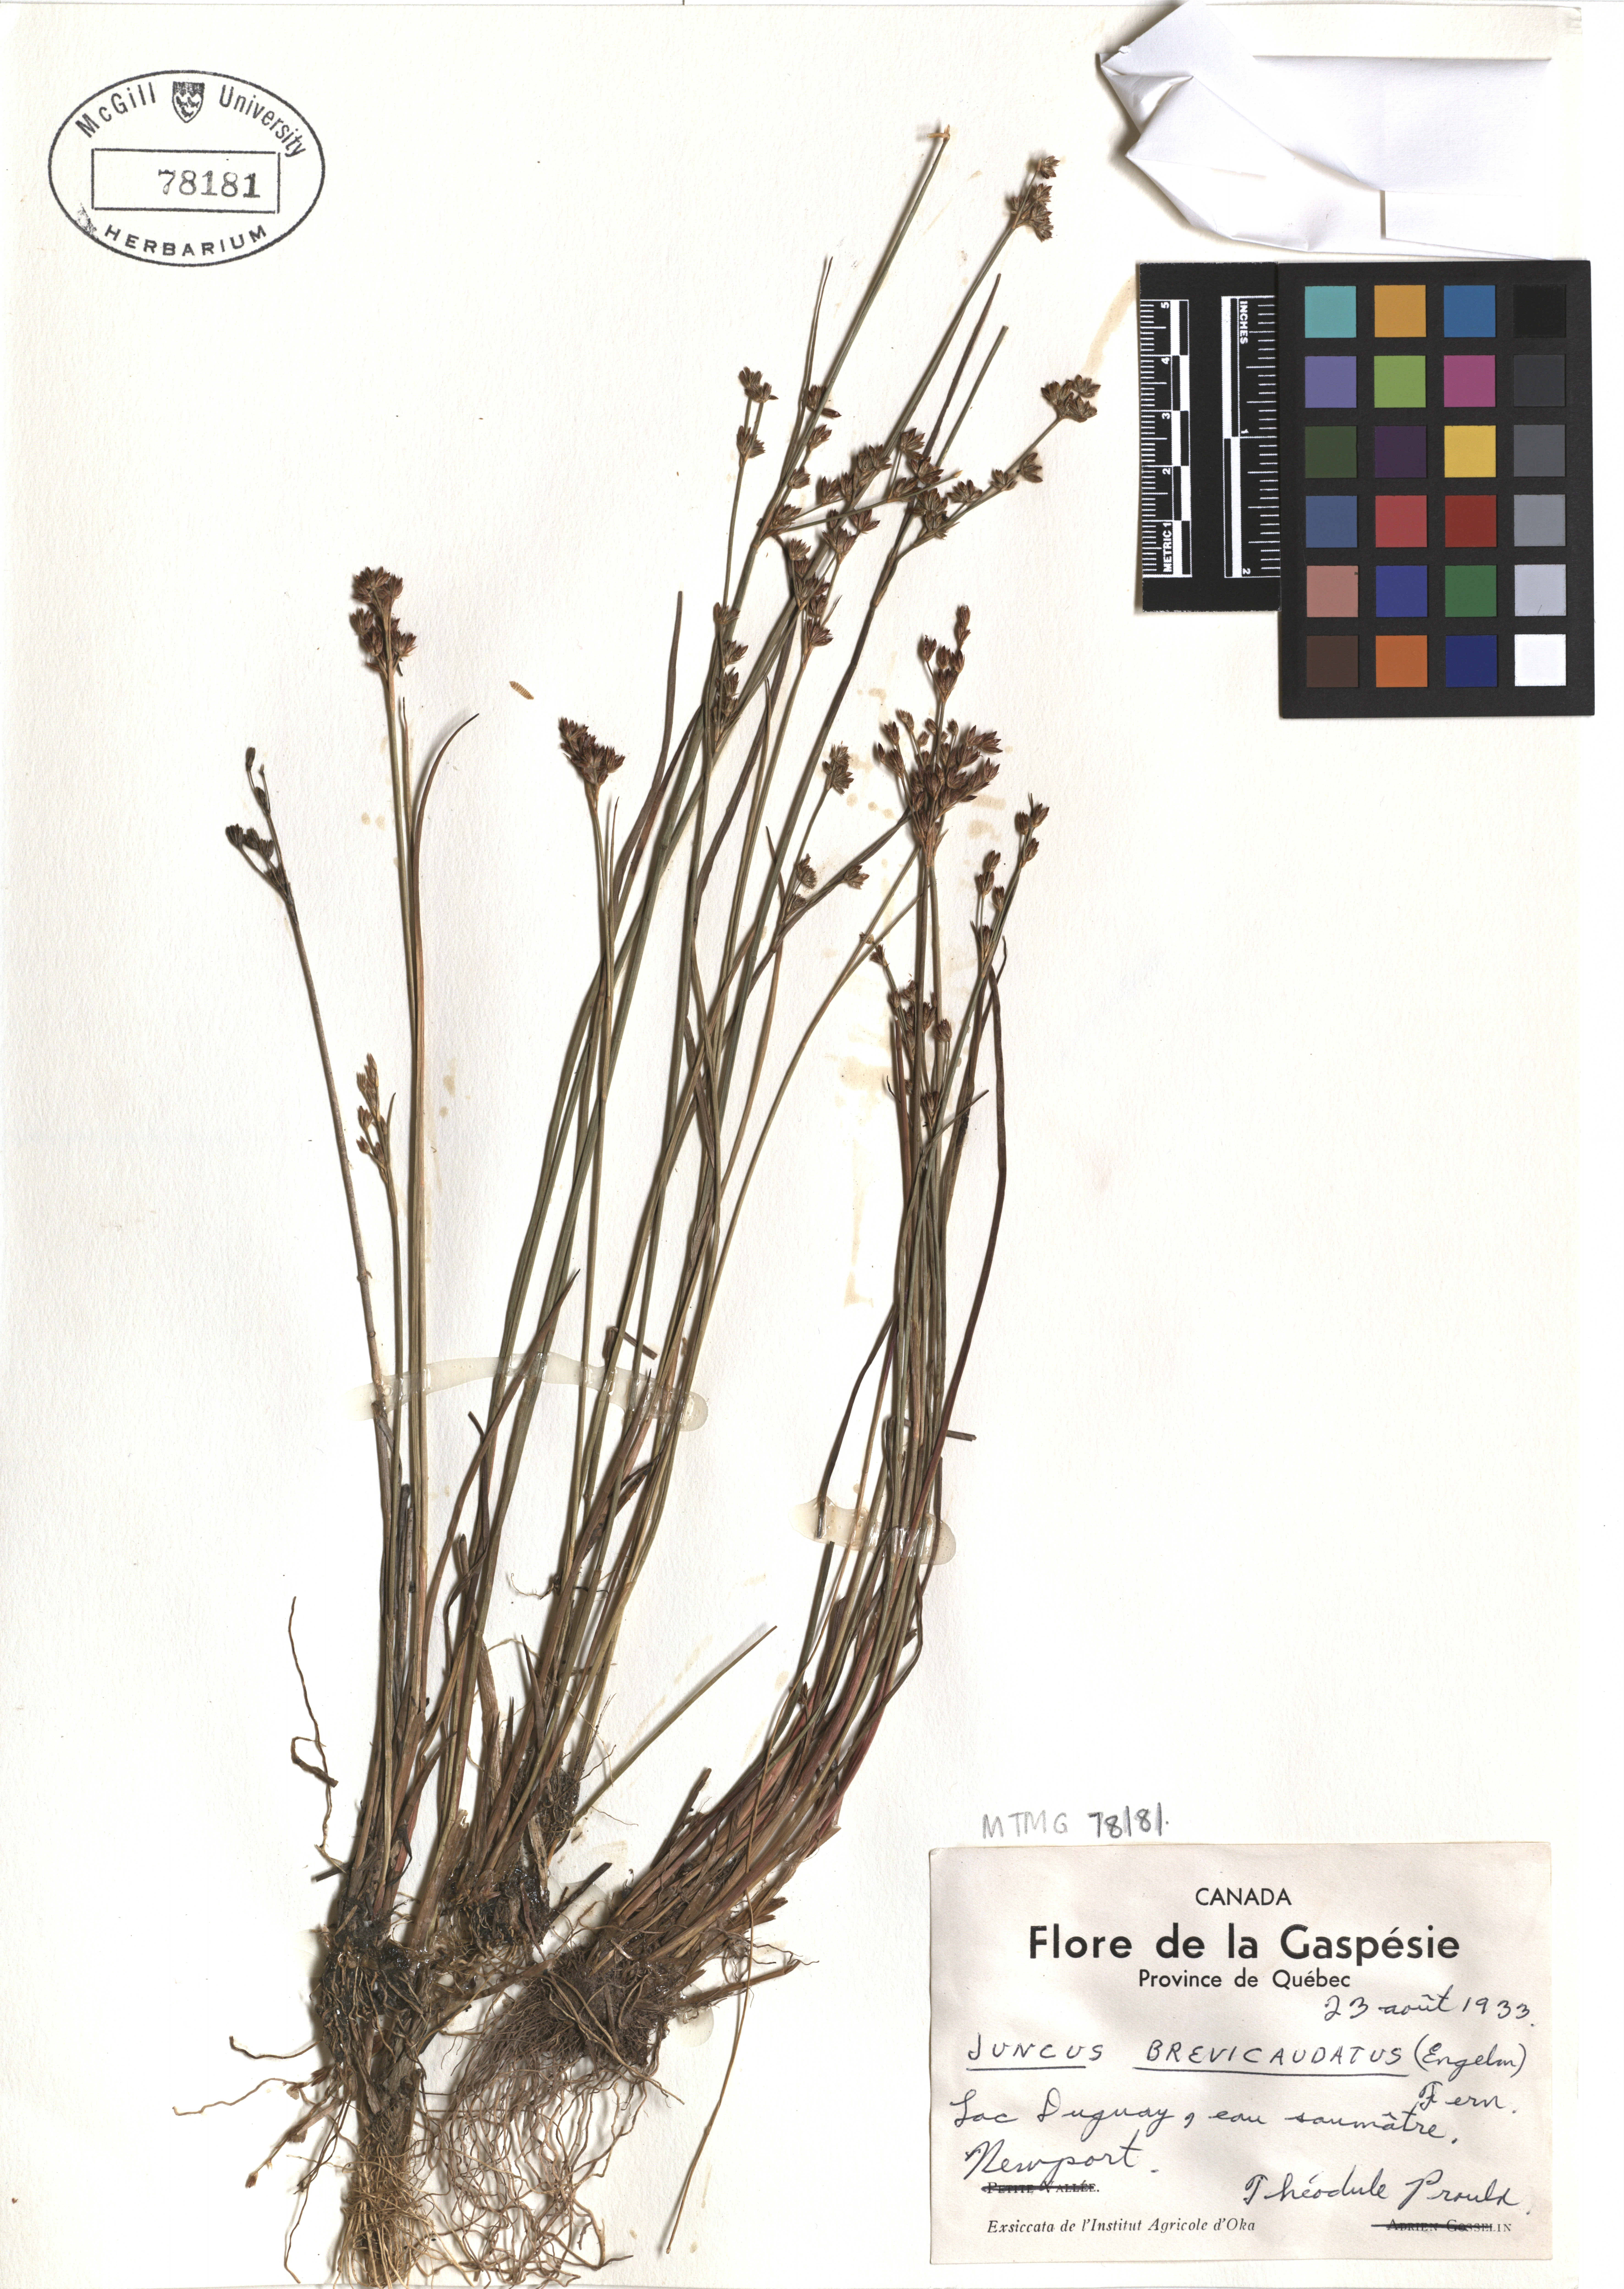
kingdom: Plantae
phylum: Tracheophyta
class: Liliopsida
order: Poales
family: Juncaceae
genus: Juncus
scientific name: Juncus brevicaudatus
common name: Narrow-panicle rush
